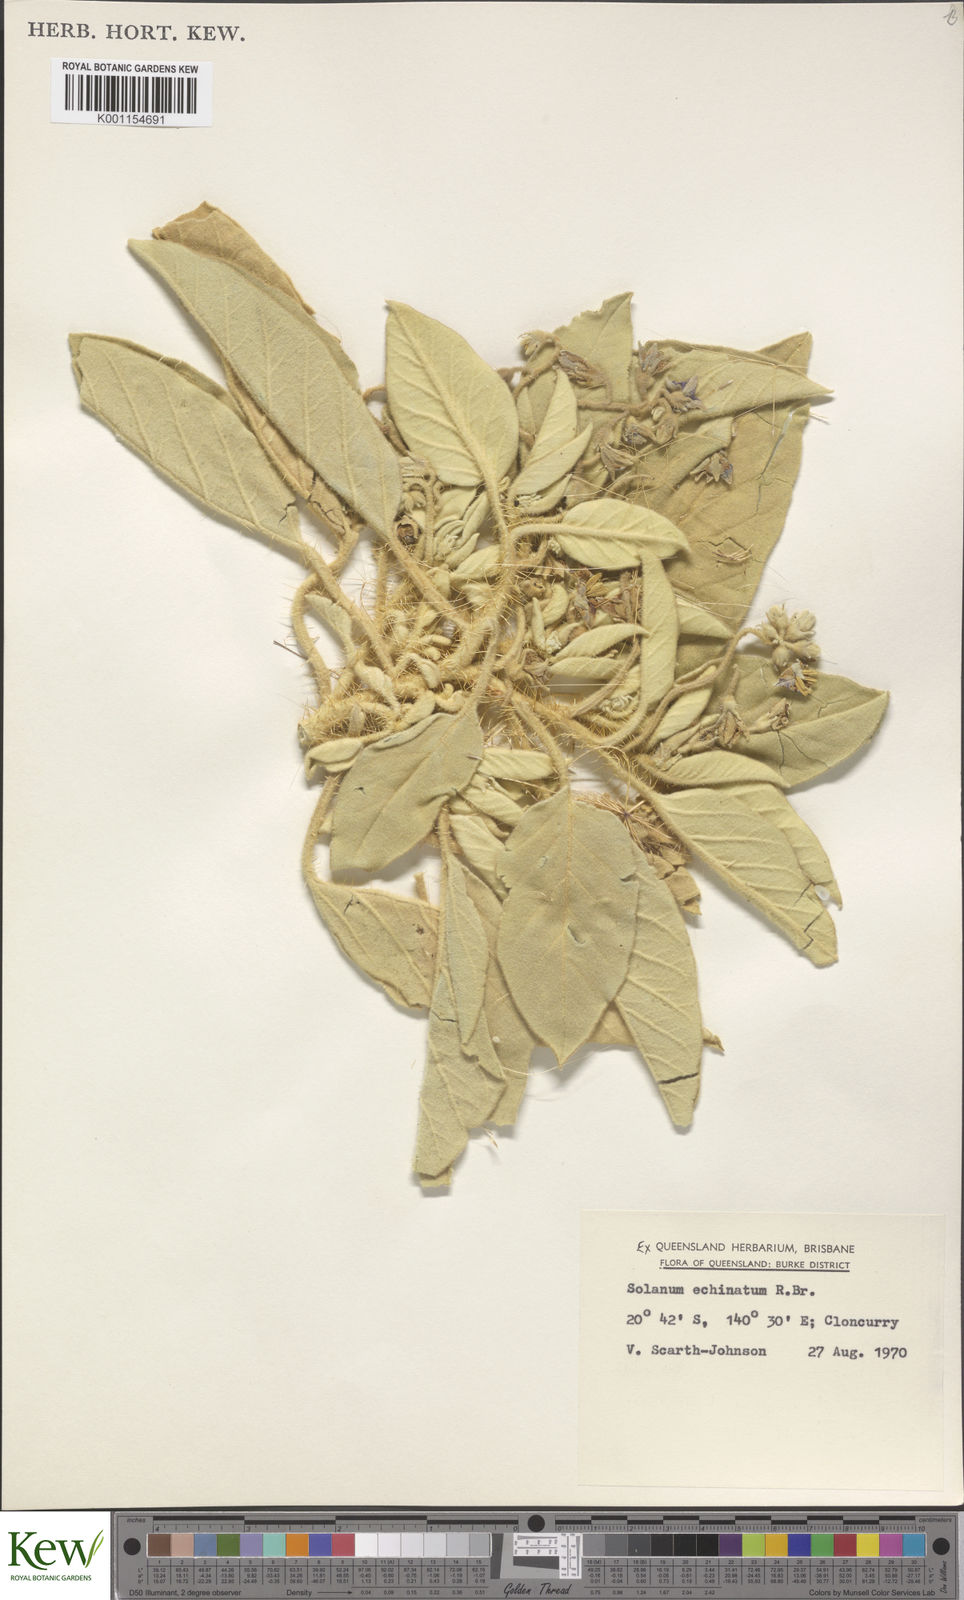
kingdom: Plantae
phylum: Tracheophyta
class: Magnoliopsida
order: Solanales
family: Solanaceae
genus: Solanum
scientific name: Solanum echinatum
